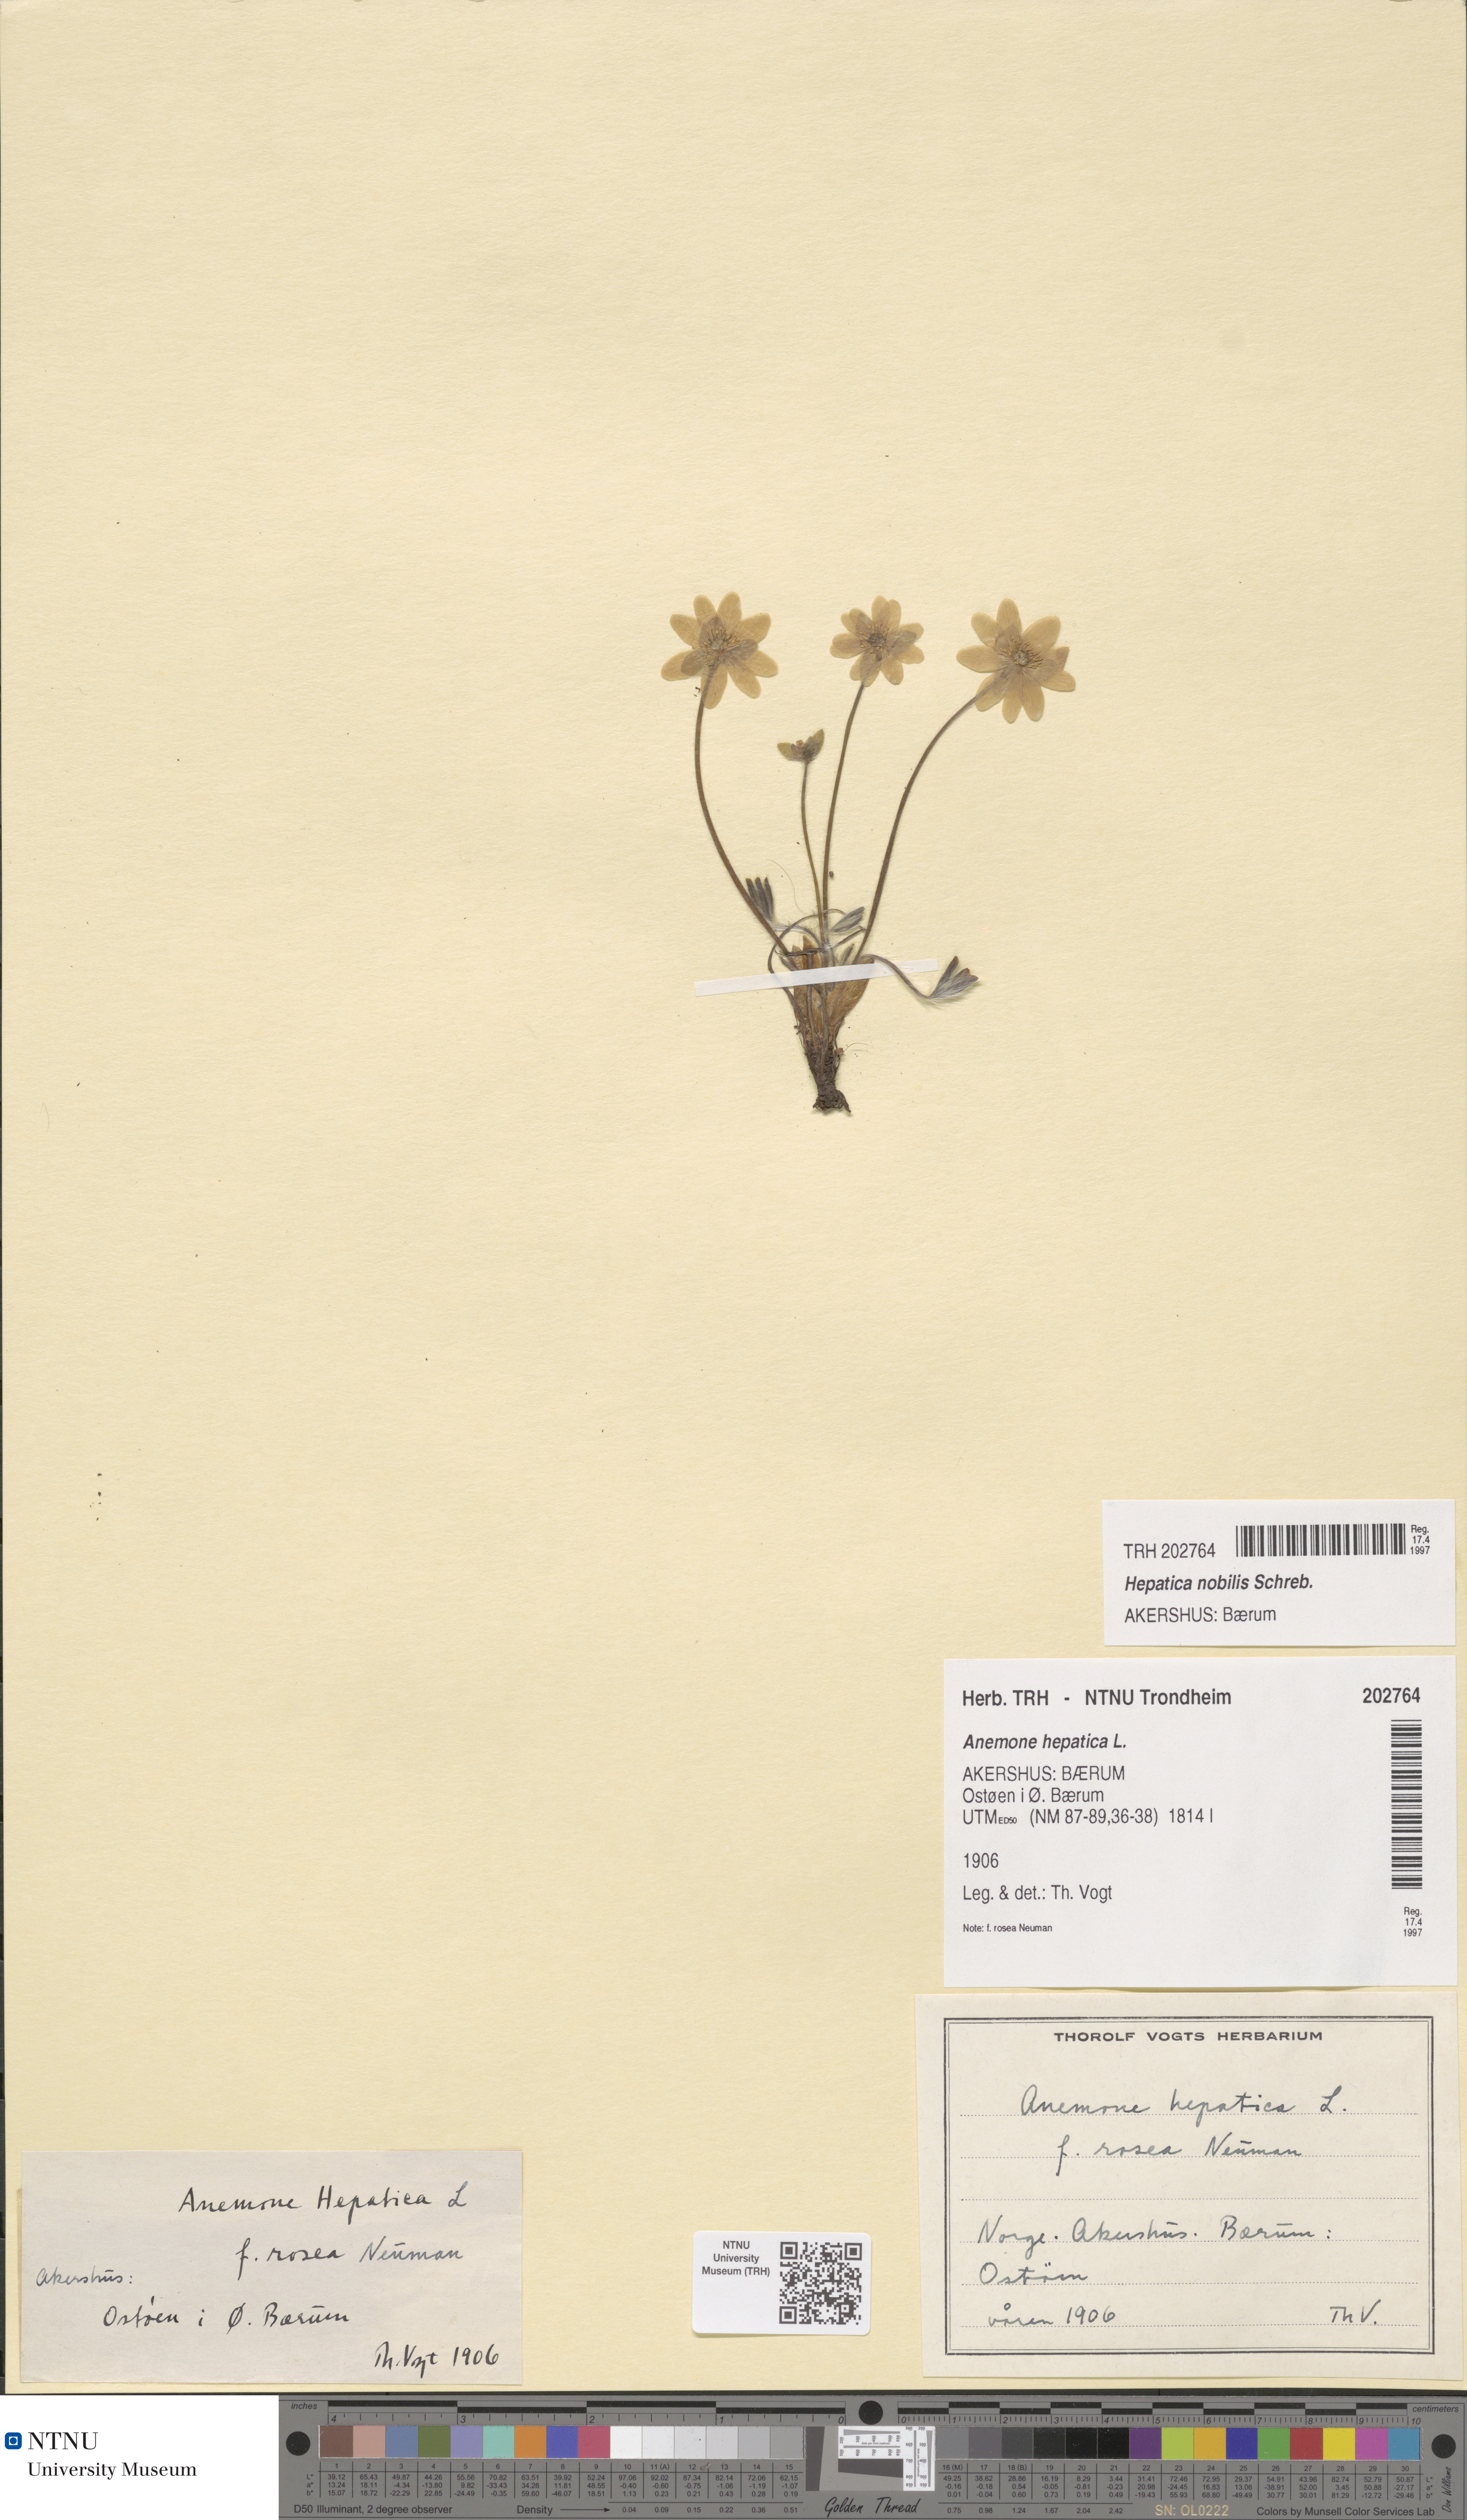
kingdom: Plantae
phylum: Tracheophyta
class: Magnoliopsida
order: Ranunculales
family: Ranunculaceae
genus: Hepatica
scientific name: Hepatica nobilis
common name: Liverleaf
